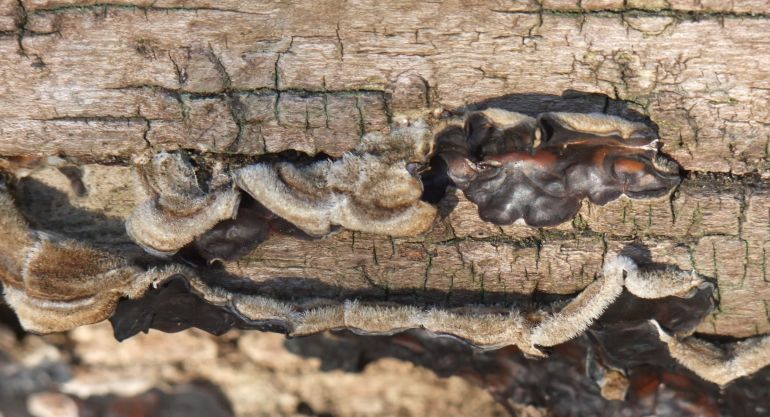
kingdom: Fungi
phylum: Basidiomycota
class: Agaricomycetes
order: Auriculariales
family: Auriculariaceae
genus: Auricularia
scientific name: Auricularia mesenterica
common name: håret judasøre
